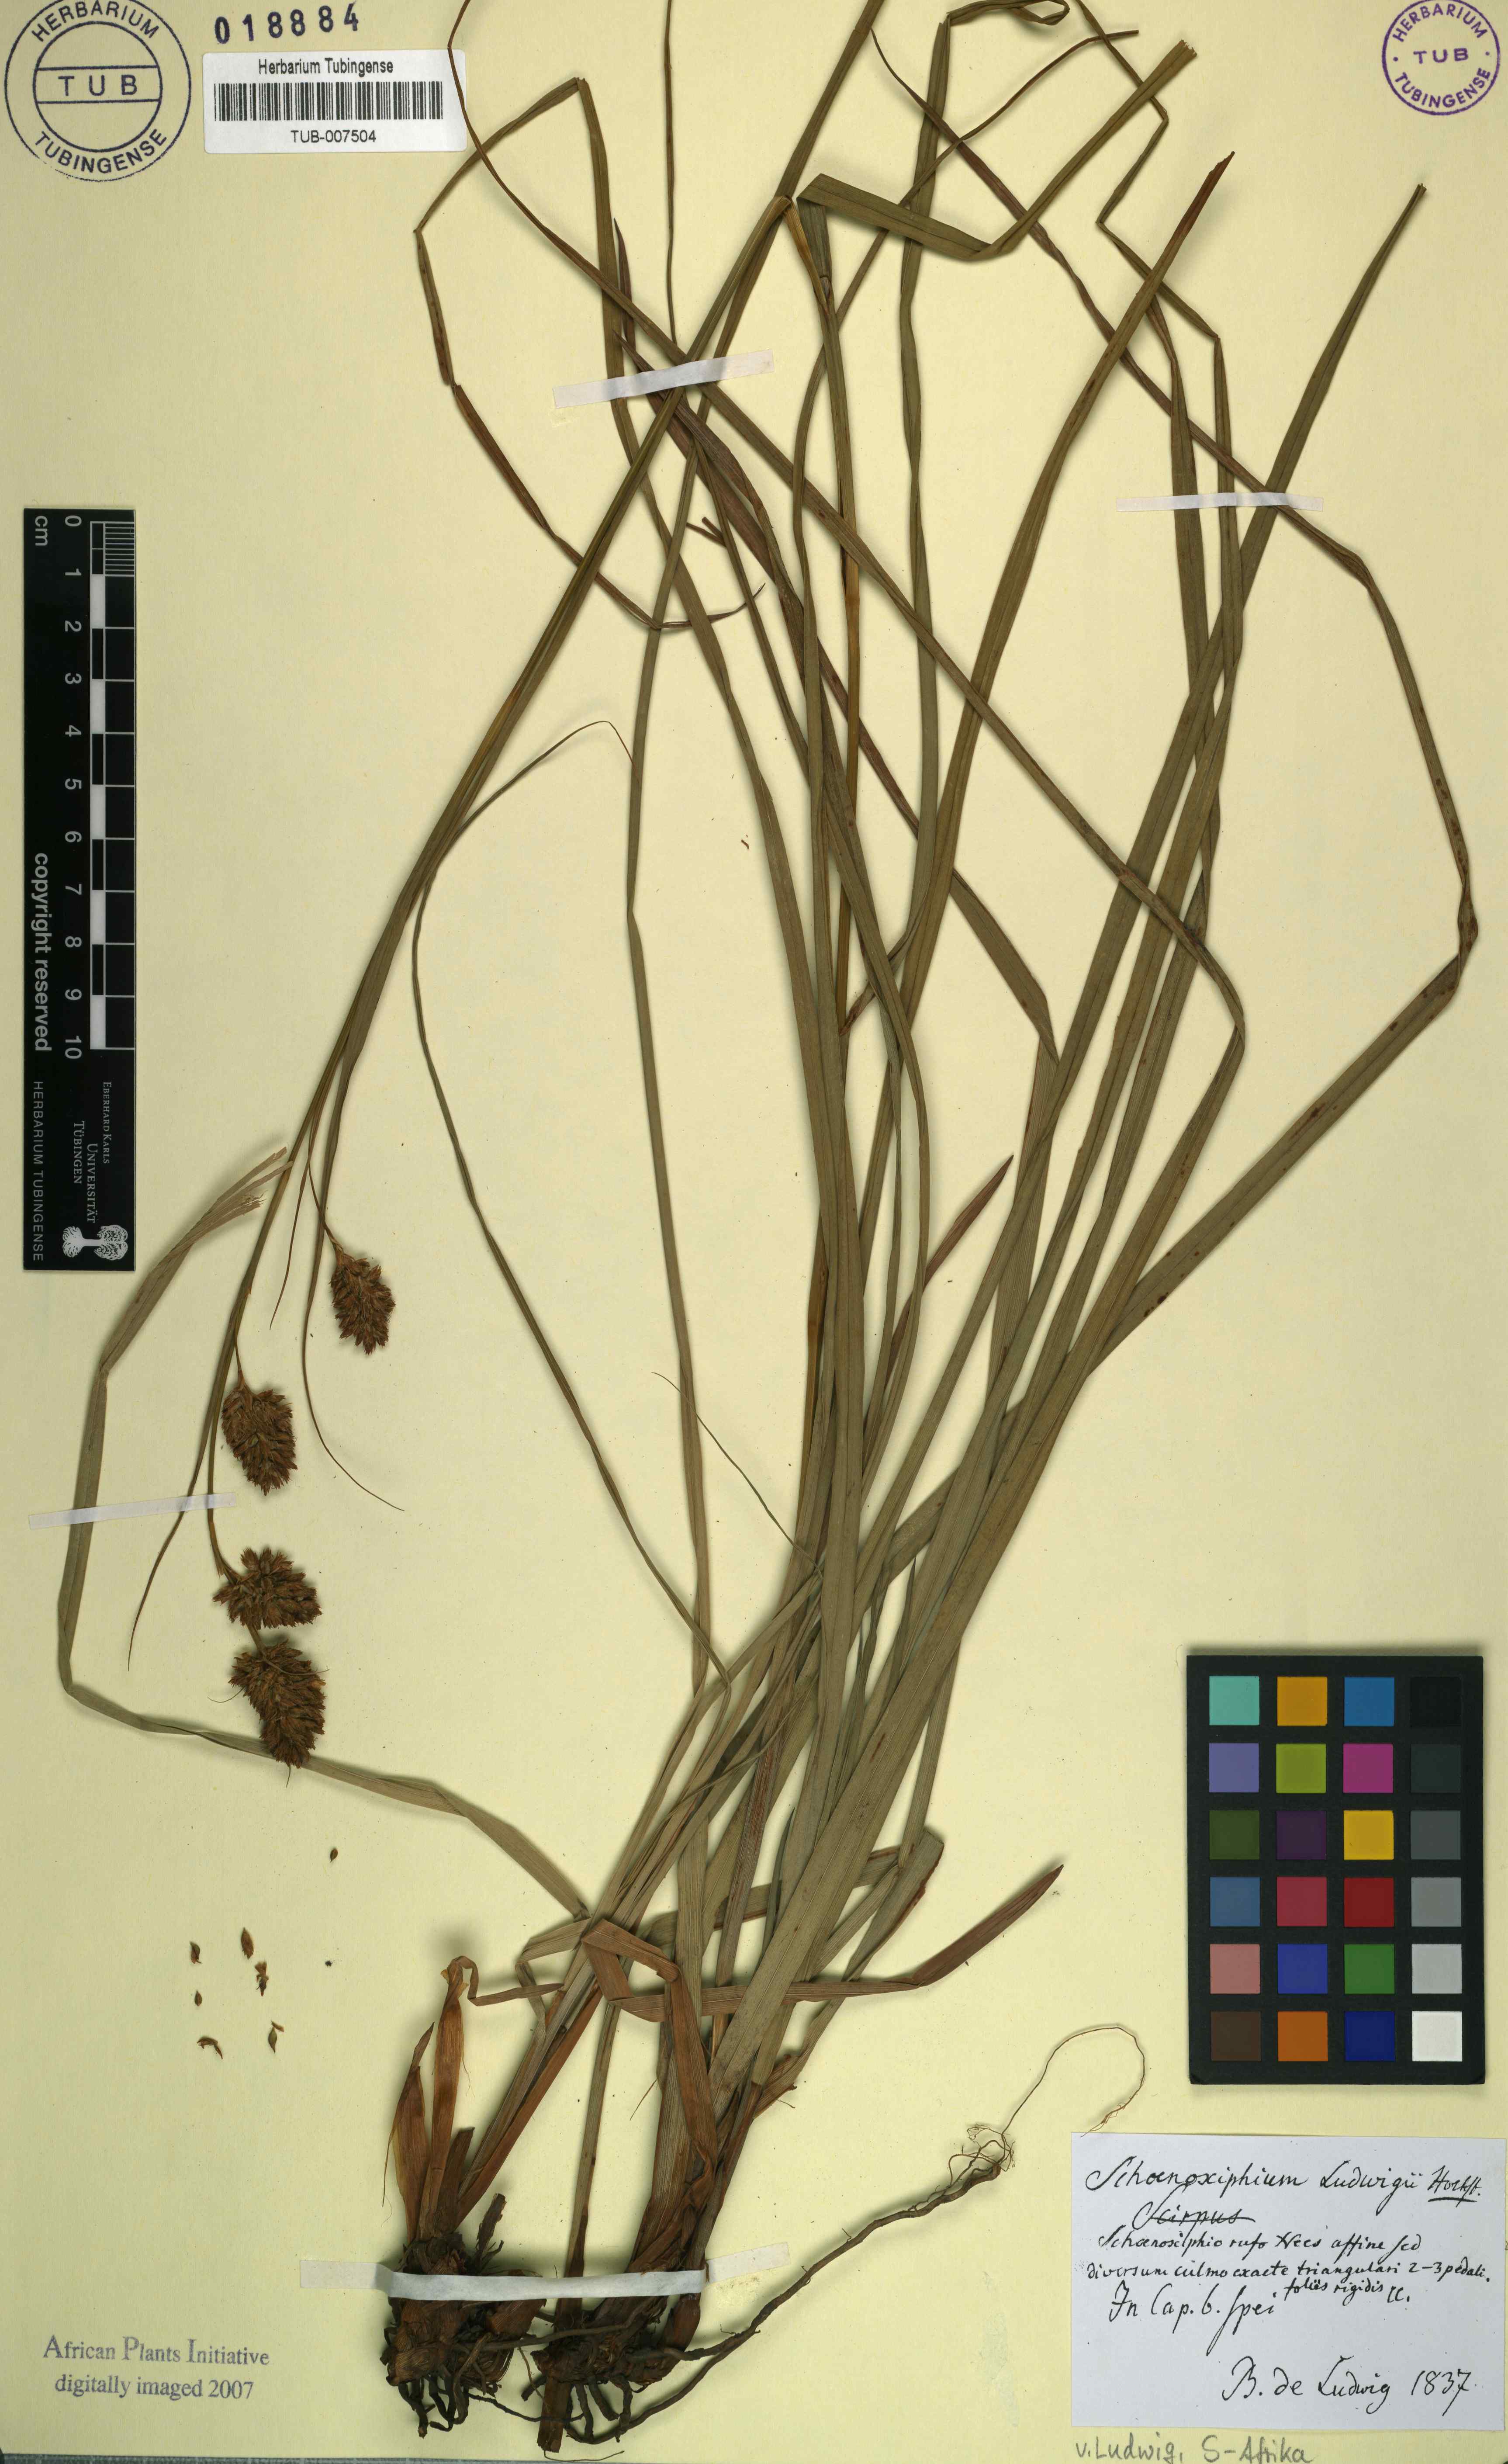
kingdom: Plantae
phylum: Tracheophyta
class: Liliopsida
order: Poales
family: Cyperaceae
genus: Carex
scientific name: Carex ludwigii
